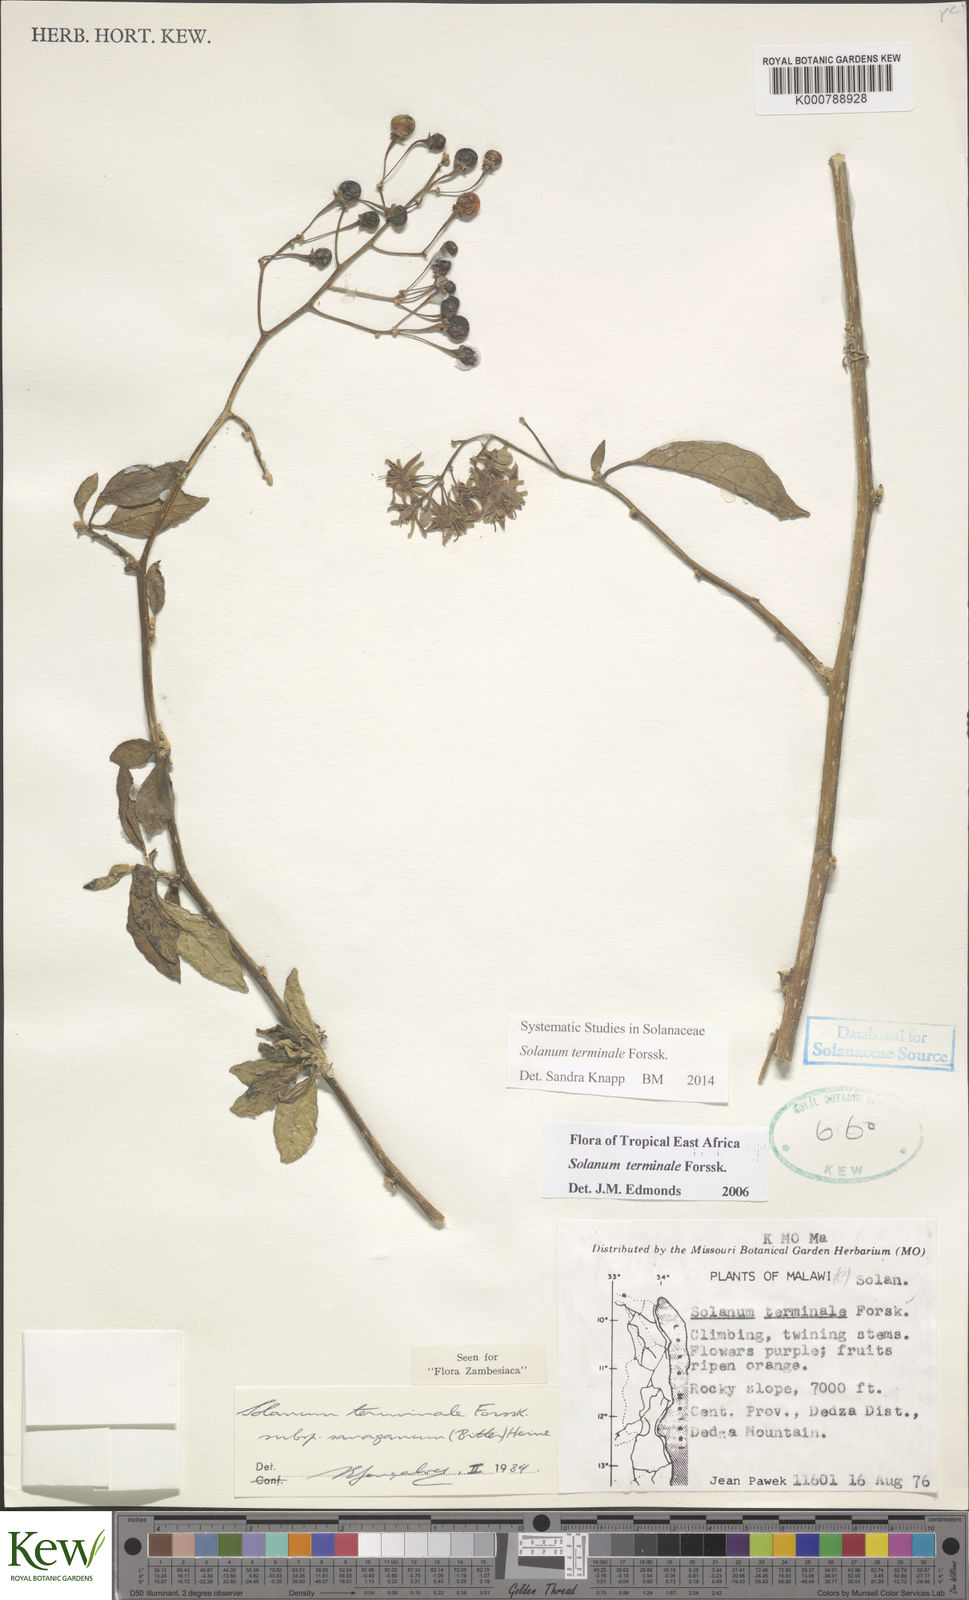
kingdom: Plantae
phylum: Tracheophyta
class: Magnoliopsida
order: Solanales
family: Solanaceae
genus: Solanum
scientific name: Solanum terminale
